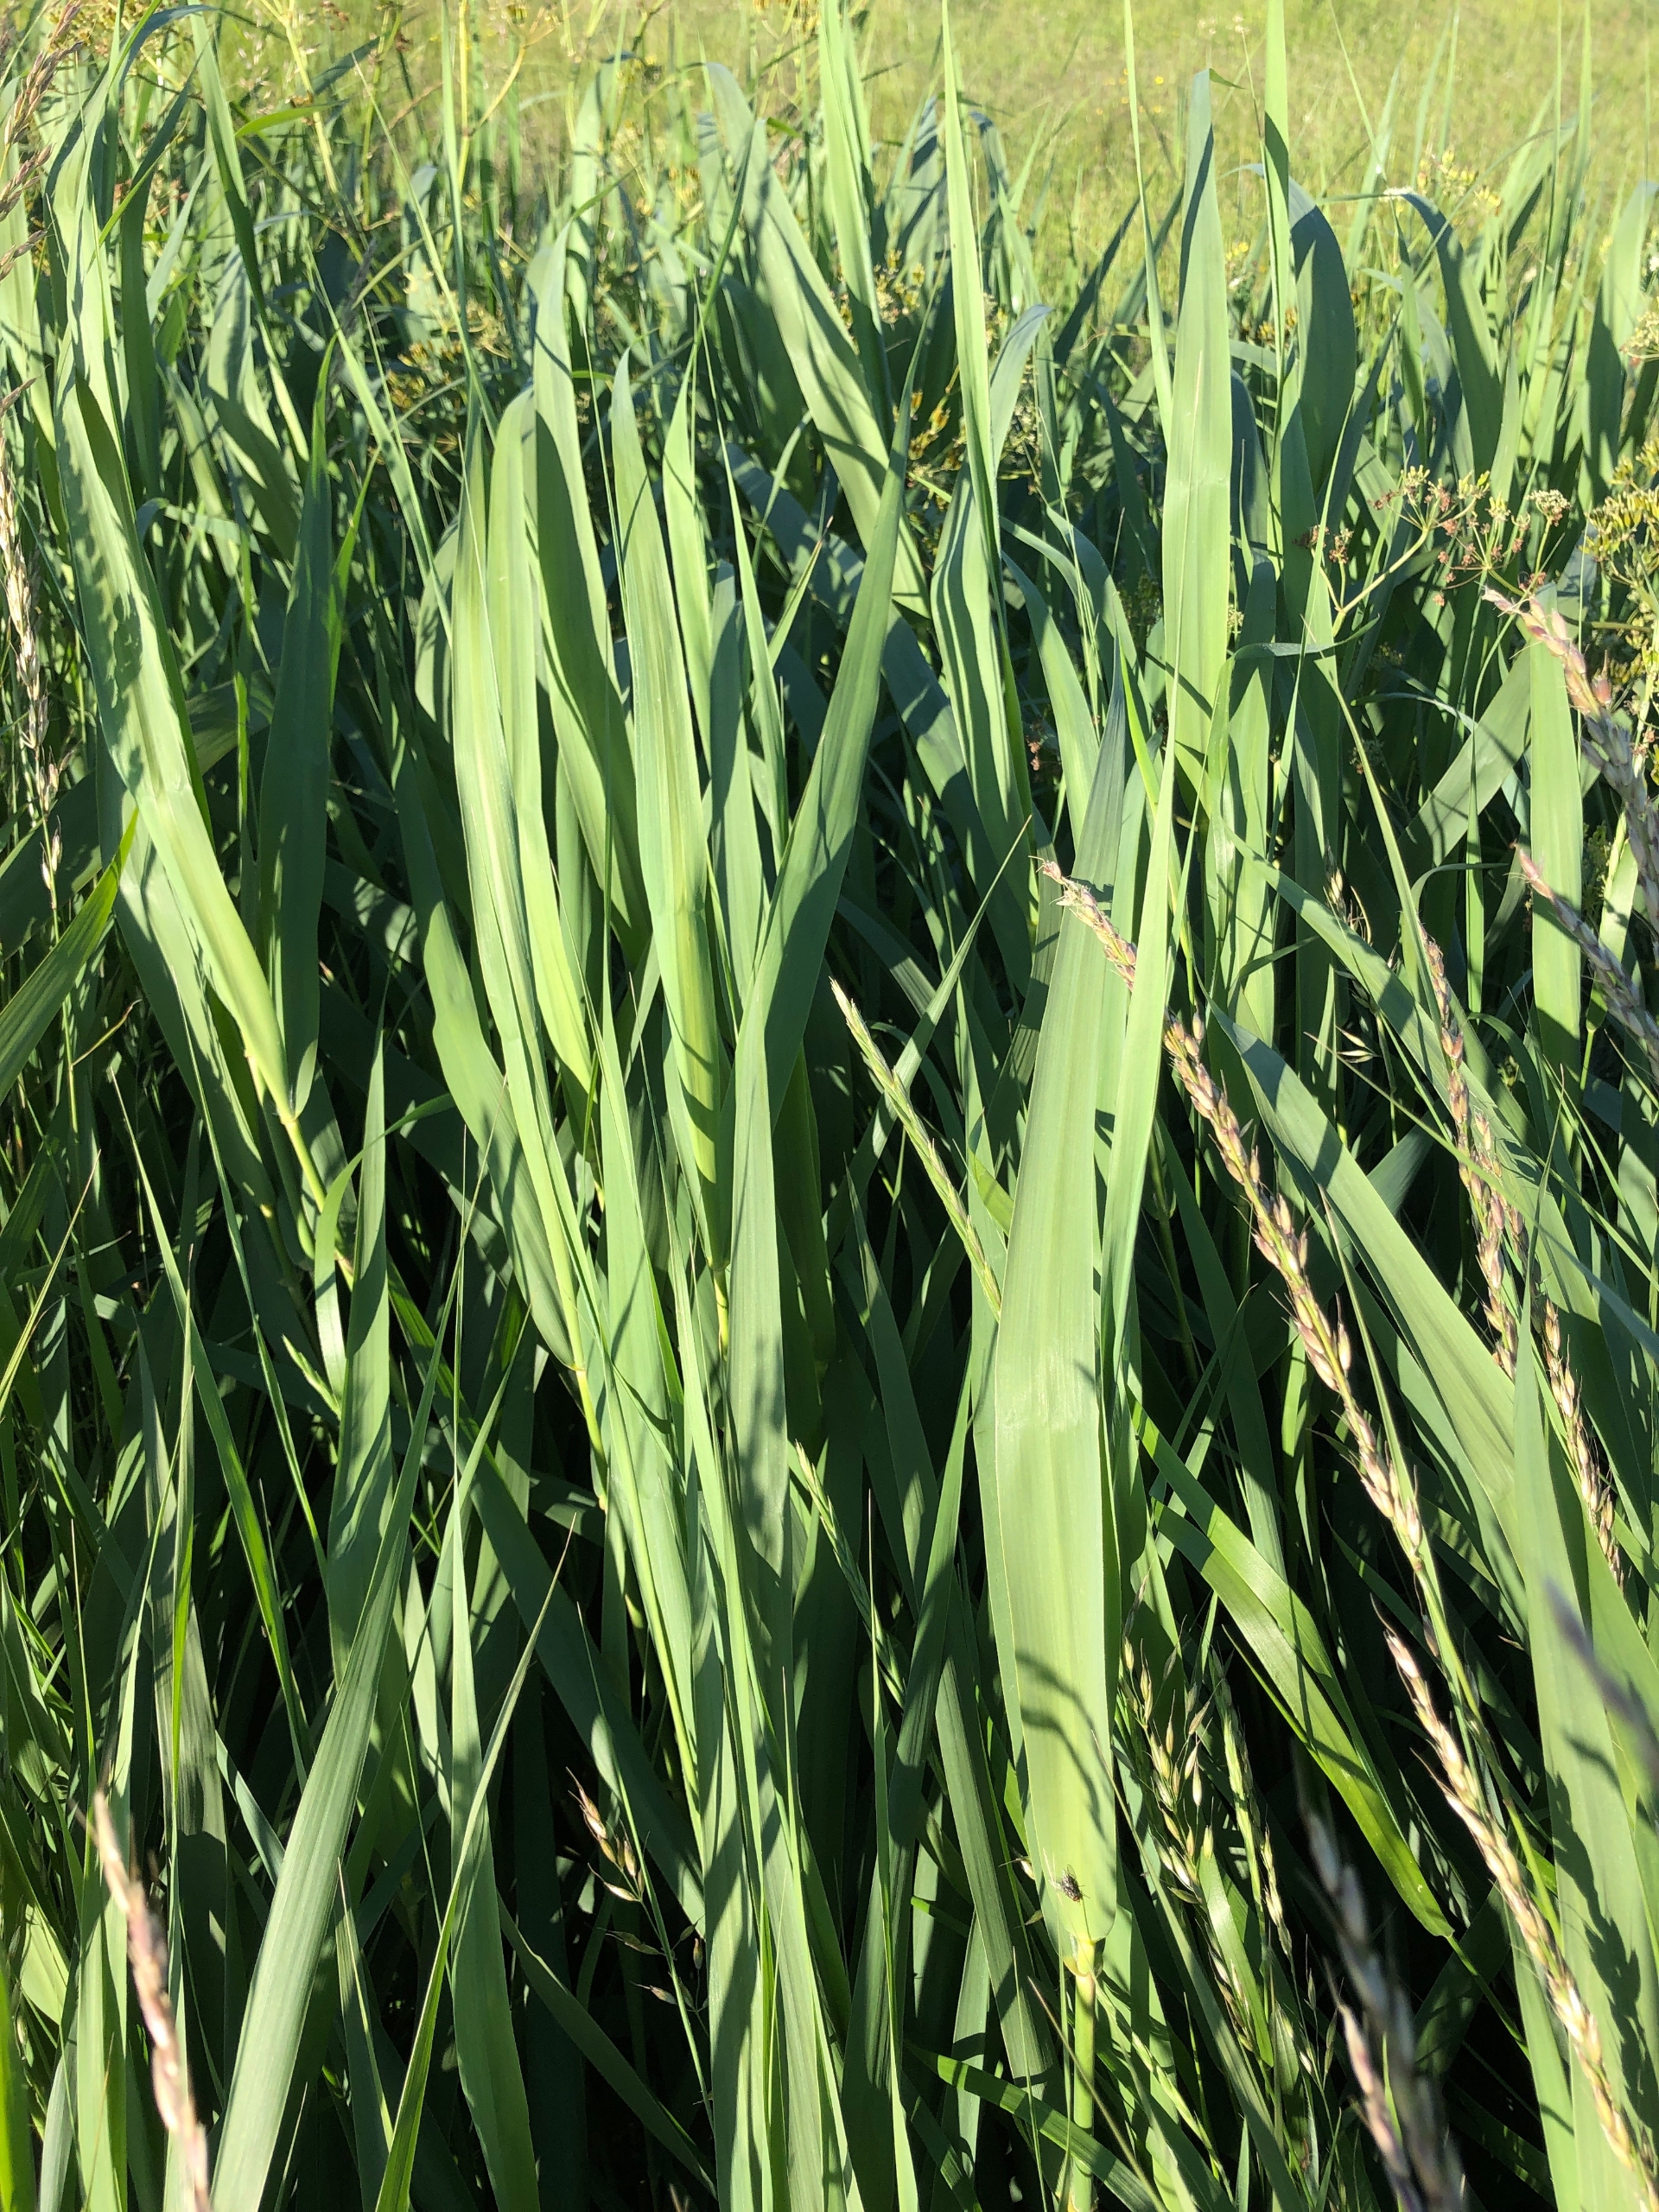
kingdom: Plantae
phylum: Tracheophyta
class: Liliopsida
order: Poales
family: Poaceae
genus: Phragmites
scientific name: Phragmites australis
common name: Tagrør
